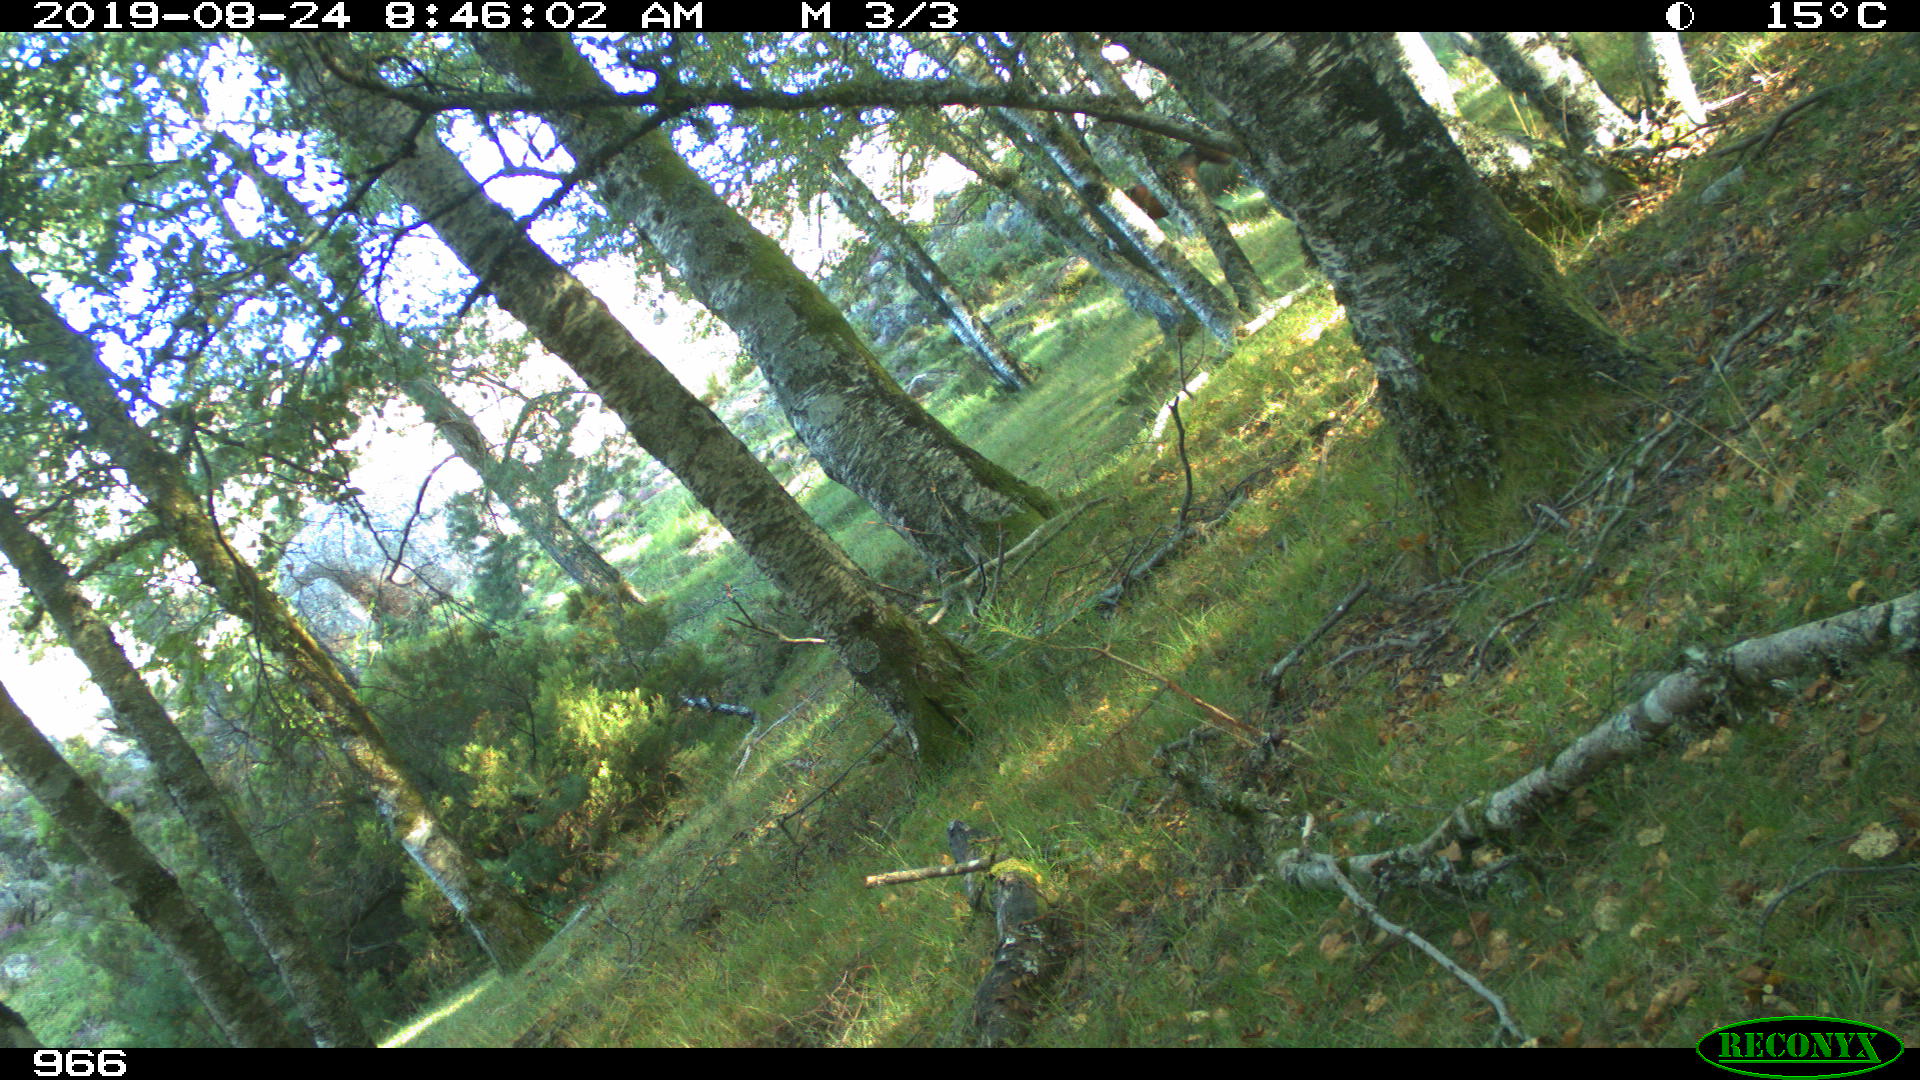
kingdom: Animalia
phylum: Chordata
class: Mammalia
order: Perissodactyla
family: Equidae
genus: Equus
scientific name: Equus caballus
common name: Horse
